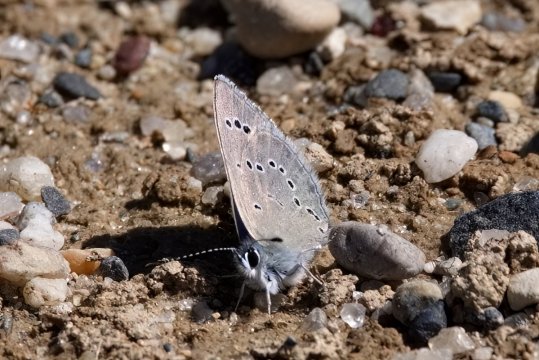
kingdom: Animalia
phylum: Arthropoda
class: Insecta
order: Lepidoptera
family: Lycaenidae
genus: Glaucopsyche
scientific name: Glaucopsyche lygdamus
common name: Silvery Blue
